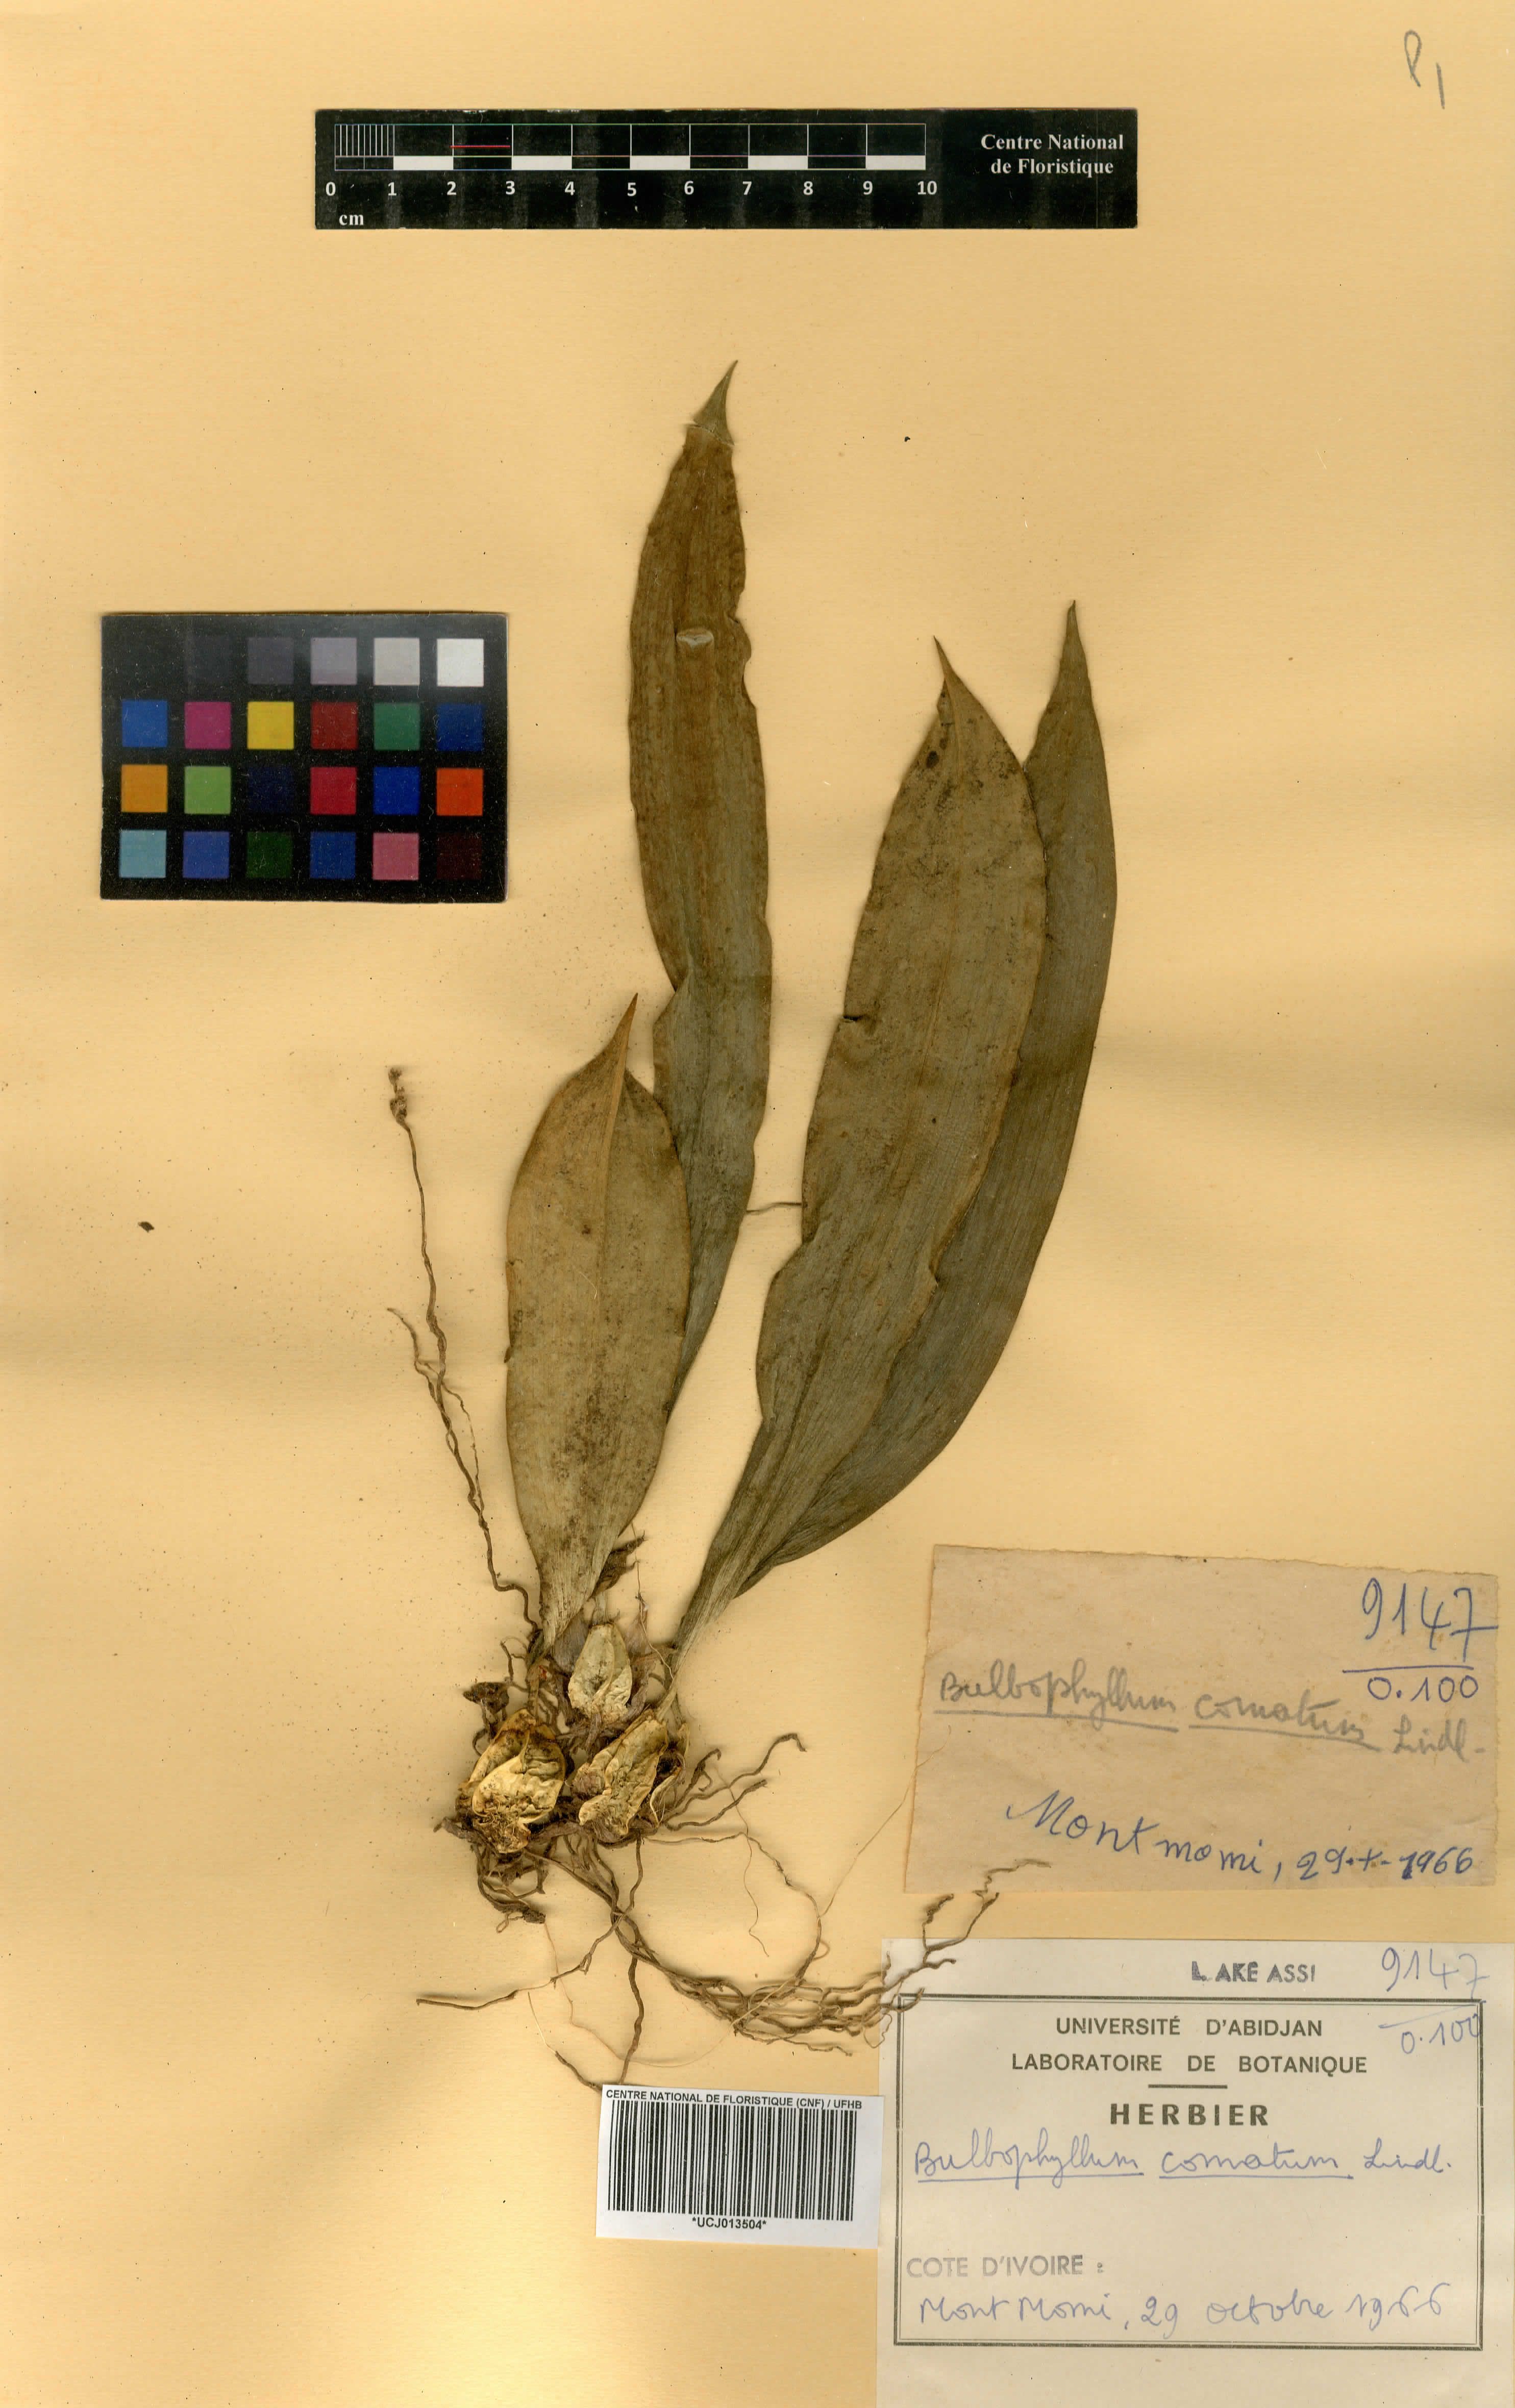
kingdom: Plantae
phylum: Tracheophyta
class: Liliopsida
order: Asparagales
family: Orchidaceae
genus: Bulbophyllum
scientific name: Bulbophyllum comatum
